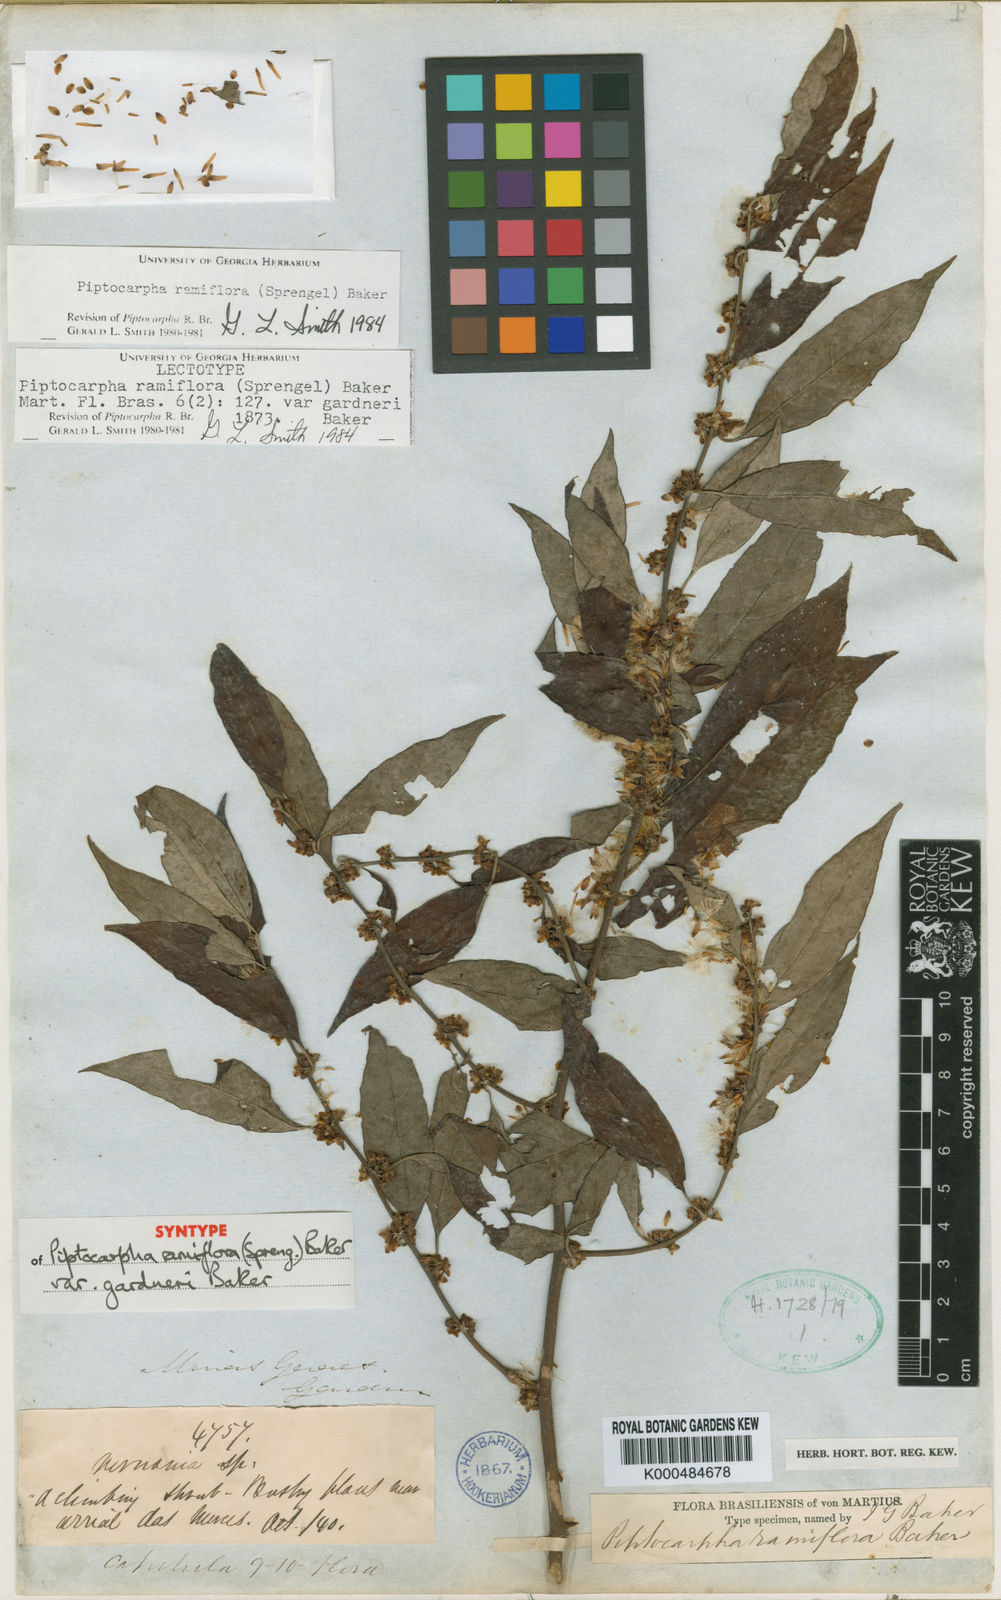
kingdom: Plantae
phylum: Tracheophyta
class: Magnoliopsida
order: Asterales
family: Asteraceae
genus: Piptocarpha
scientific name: Piptocarpha ramiflora
